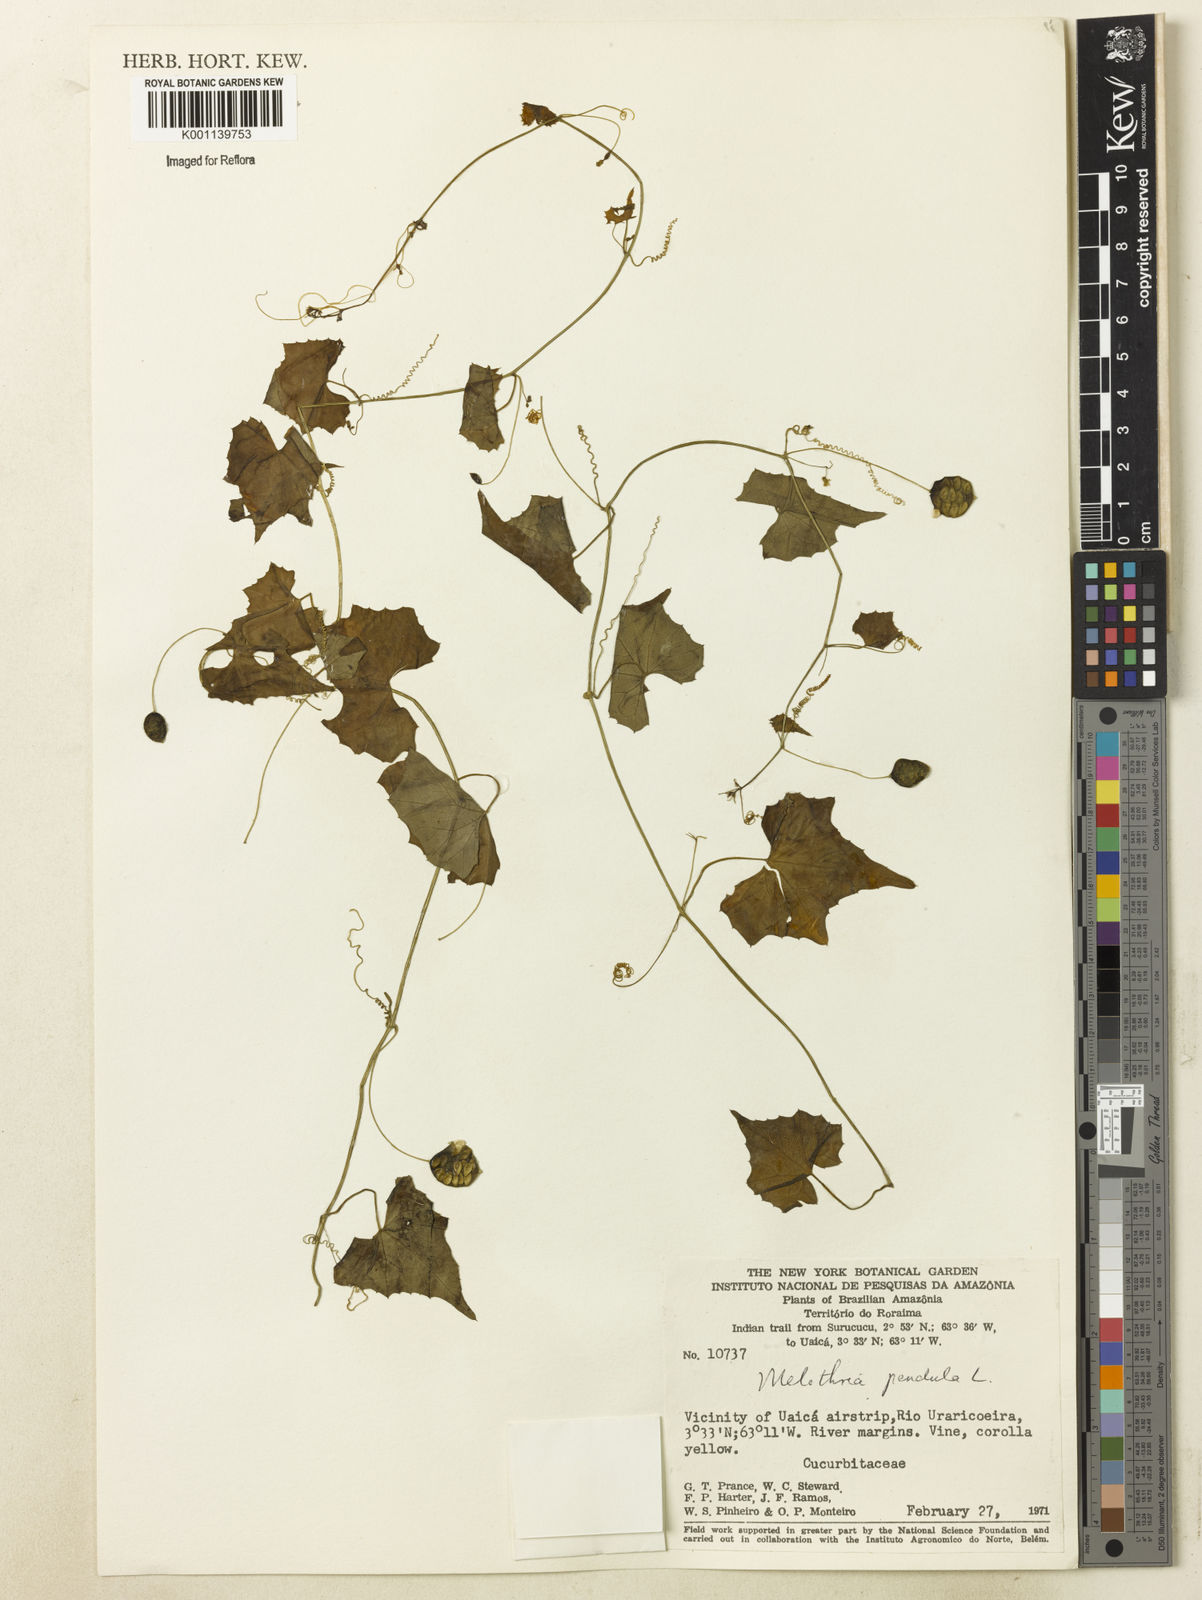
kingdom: Plantae
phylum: Tracheophyta
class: Magnoliopsida
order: Cucurbitales
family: Cucurbitaceae
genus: Melothria
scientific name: Melothria pendula
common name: Creeping-cucumber
